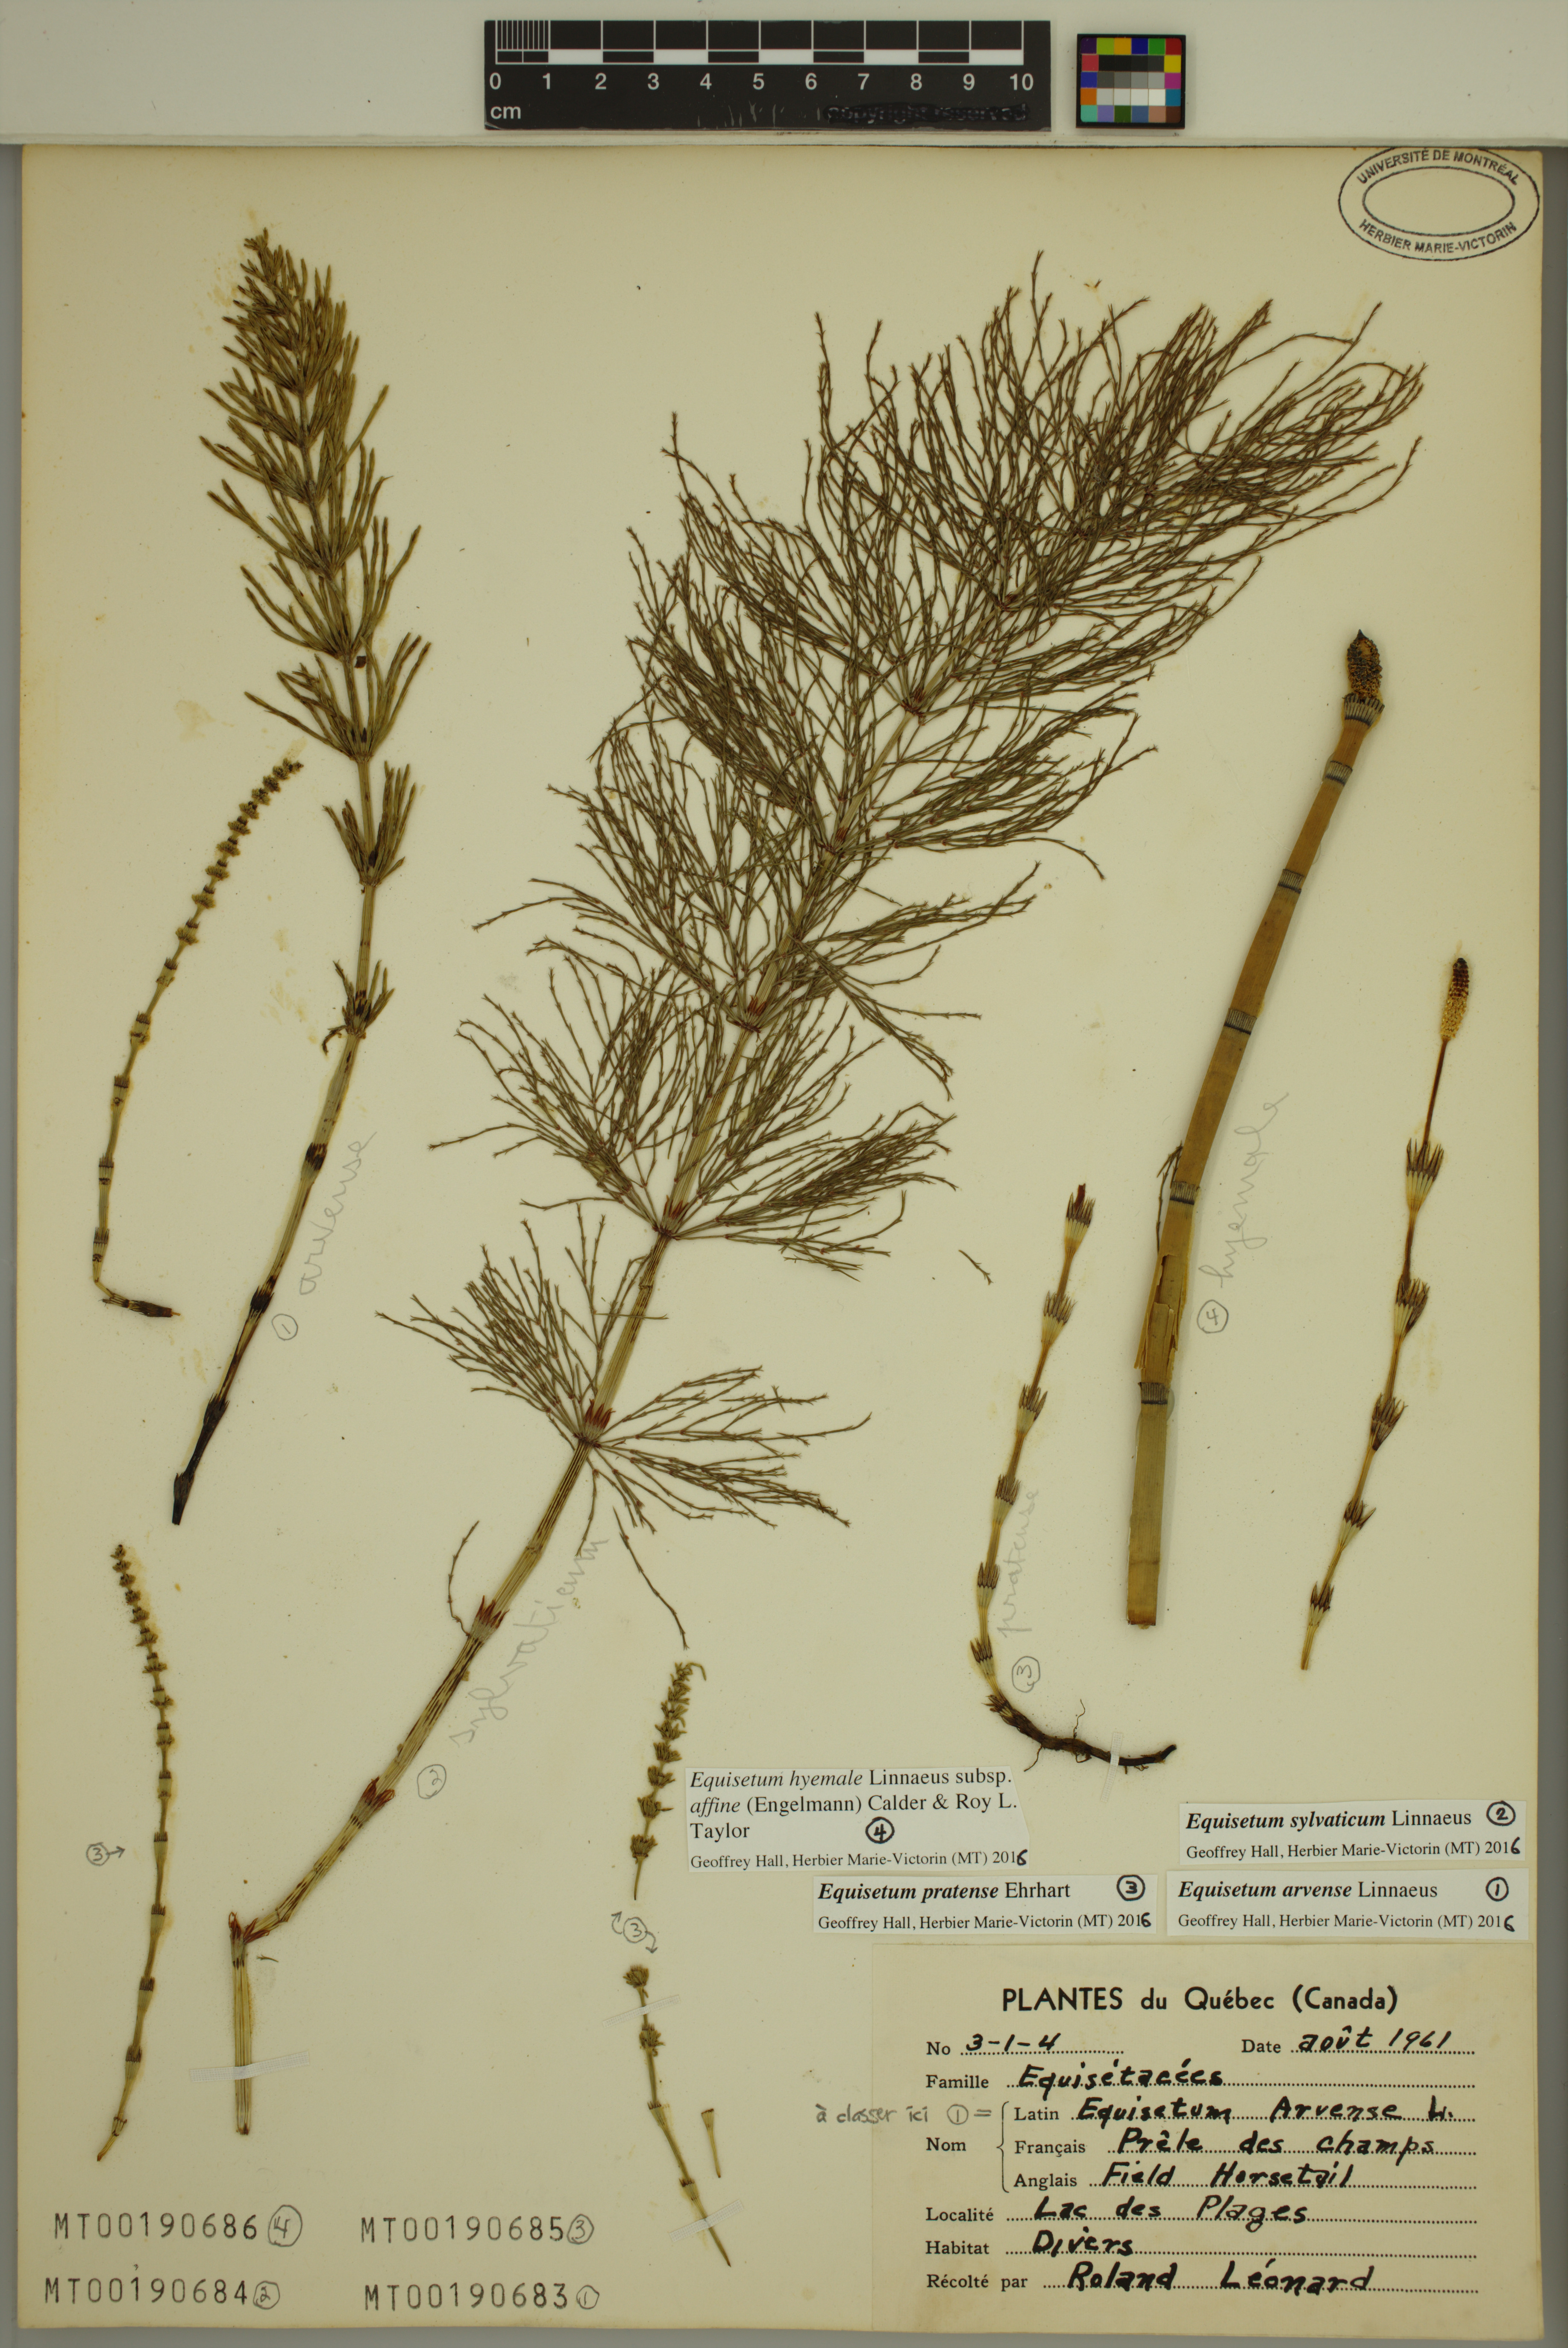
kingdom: Plantae
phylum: Tracheophyta
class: Polypodiopsida
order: Equisetales
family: Equisetaceae
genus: Equisetum
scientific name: Equisetum pratense
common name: Meadow horsetail
